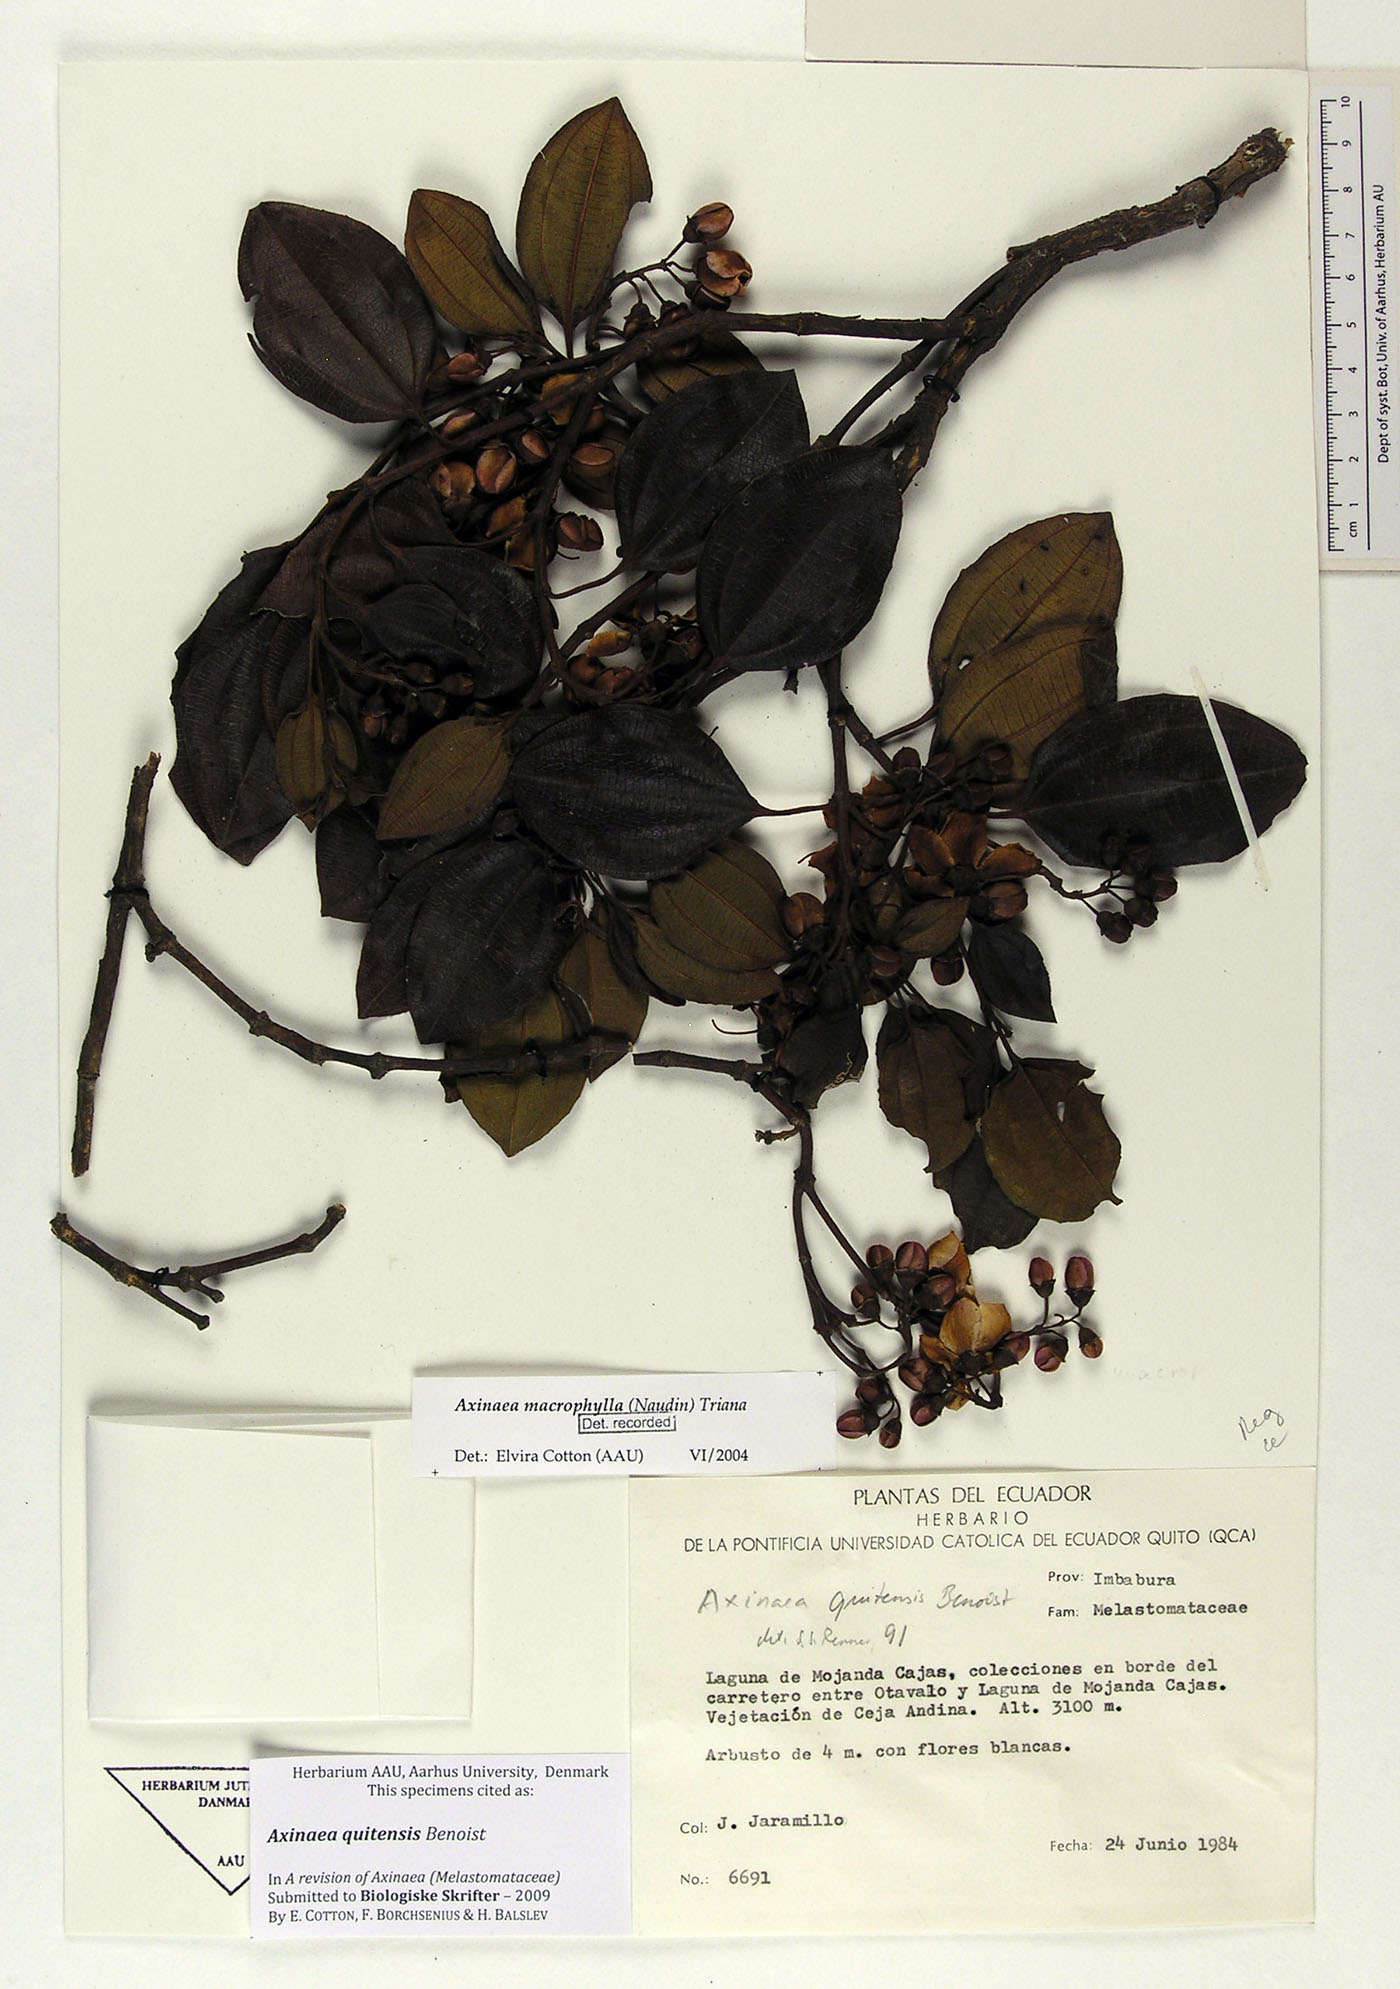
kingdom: Plantae
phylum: Tracheophyta
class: Magnoliopsida
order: Myrtales
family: Melastomataceae
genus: Axinaea
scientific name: Axinaea quitensis
